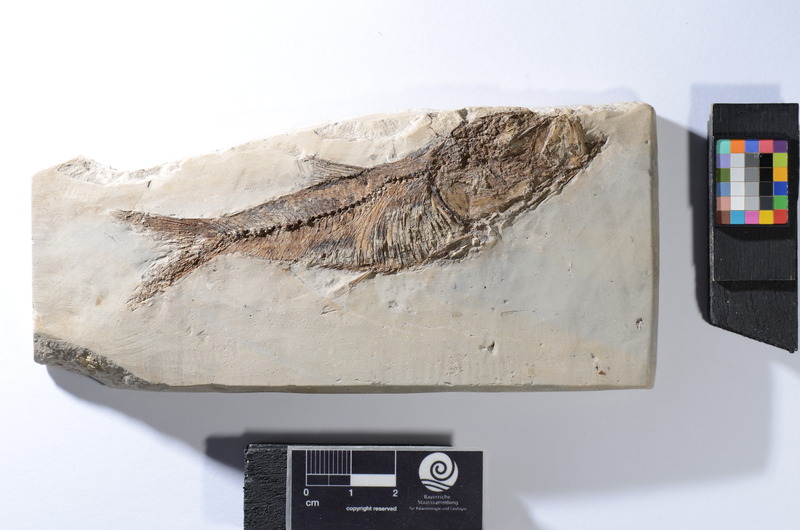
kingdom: Animalia
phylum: Chordata
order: Clupeiformes
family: Clupeidae
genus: Clupeonella
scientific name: Clupeonella
